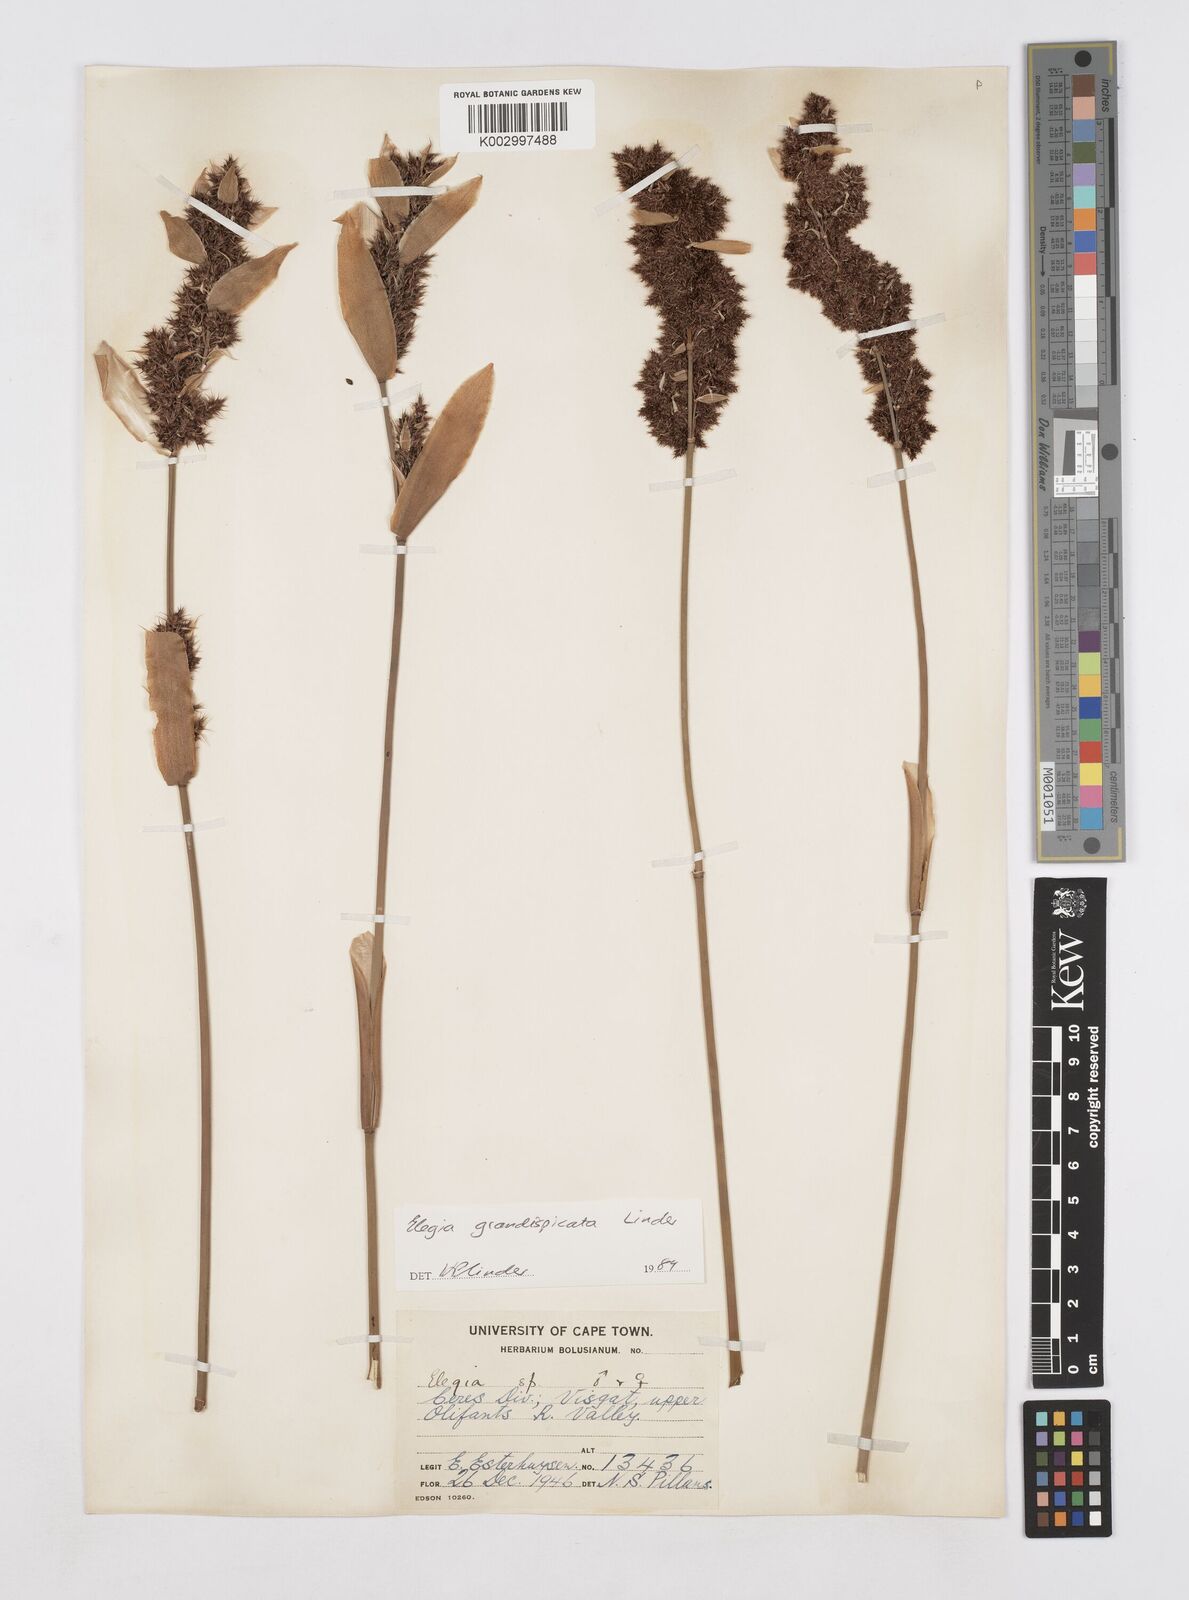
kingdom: Plantae
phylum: Tracheophyta
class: Liliopsida
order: Poales
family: Restionaceae
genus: Elegia
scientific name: Elegia asperiflora
